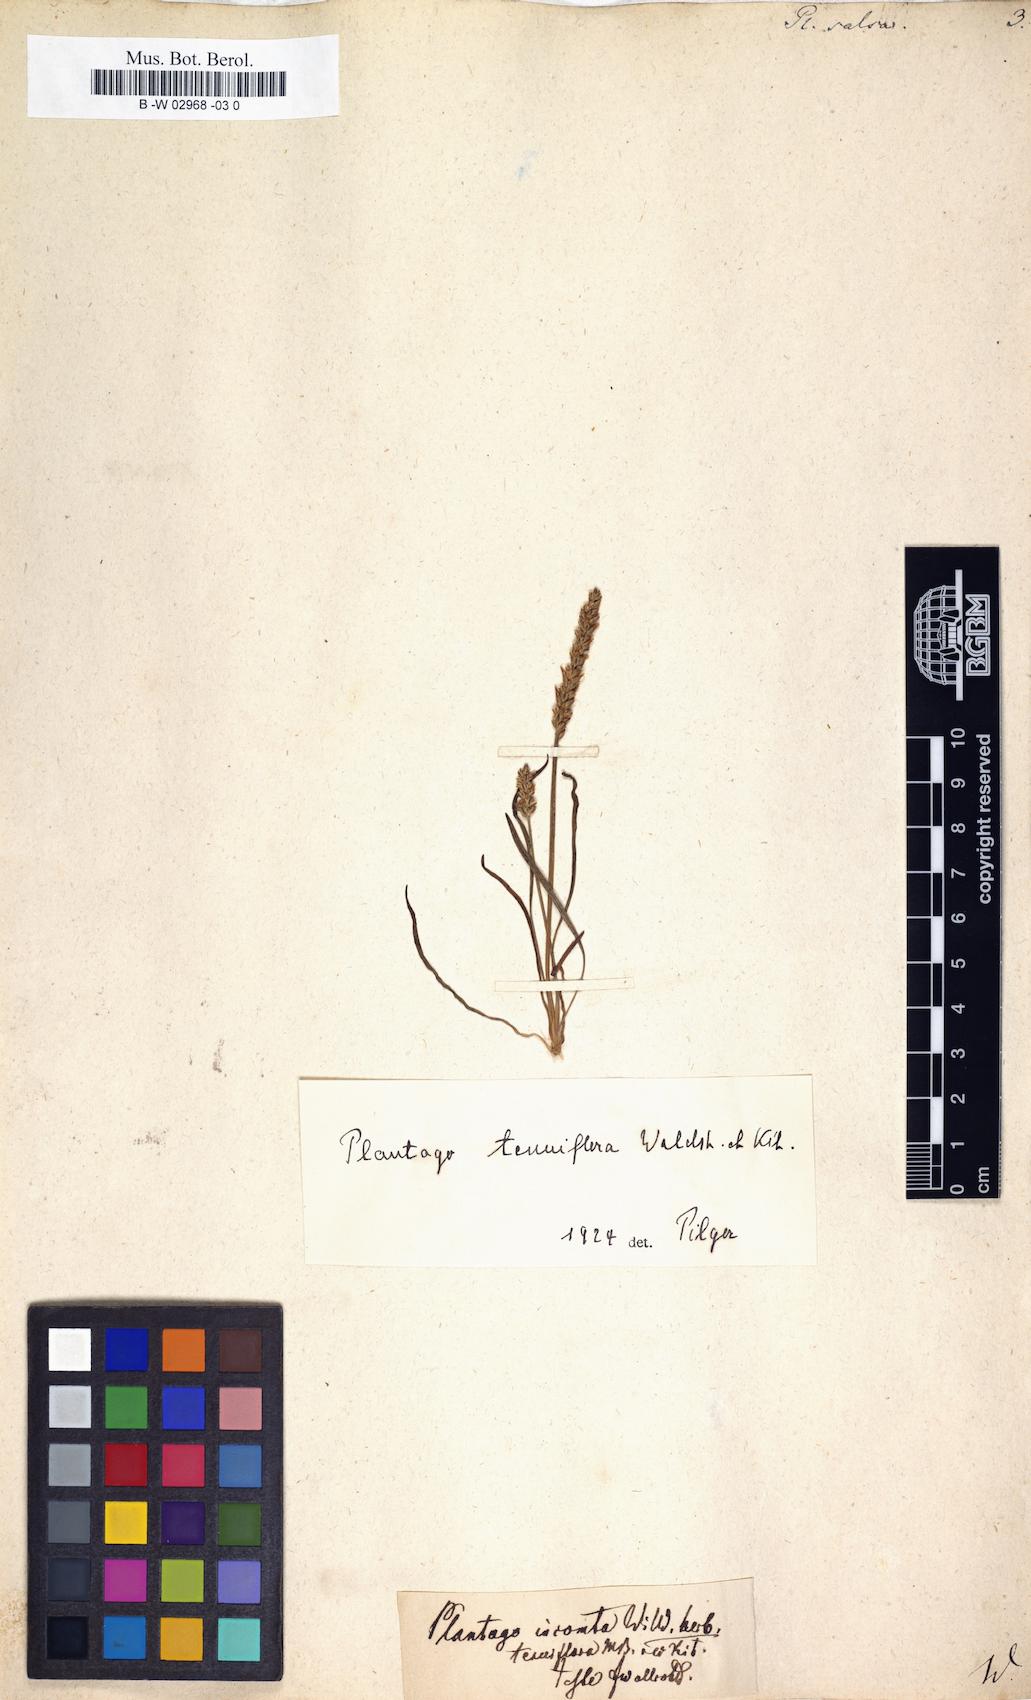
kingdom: Plantae
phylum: Tracheophyta
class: Magnoliopsida
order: Lamiales
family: Plantaginaceae
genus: Plantago
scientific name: Plantago salsa
